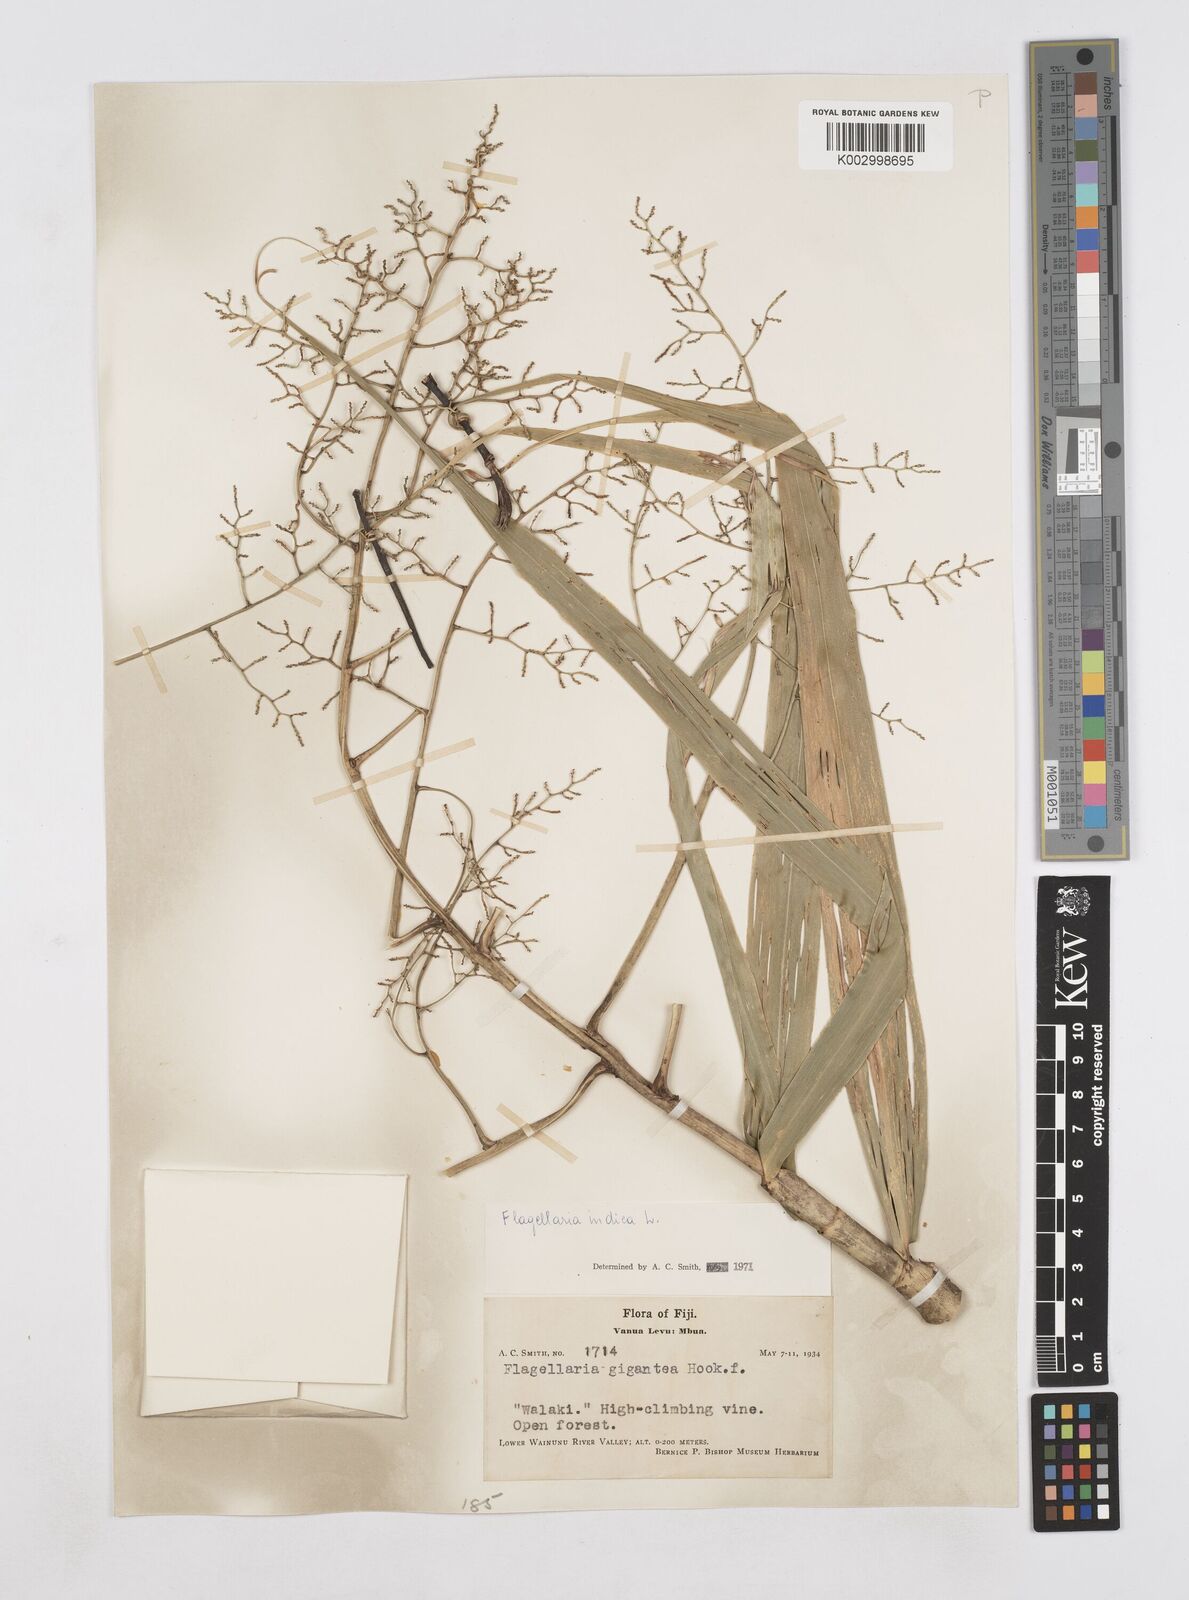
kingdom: Plantae
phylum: Tracheophyta
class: Liliopsida
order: Poales
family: Flagellariaceae
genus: Flagellaria
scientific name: Flagellaria indica
